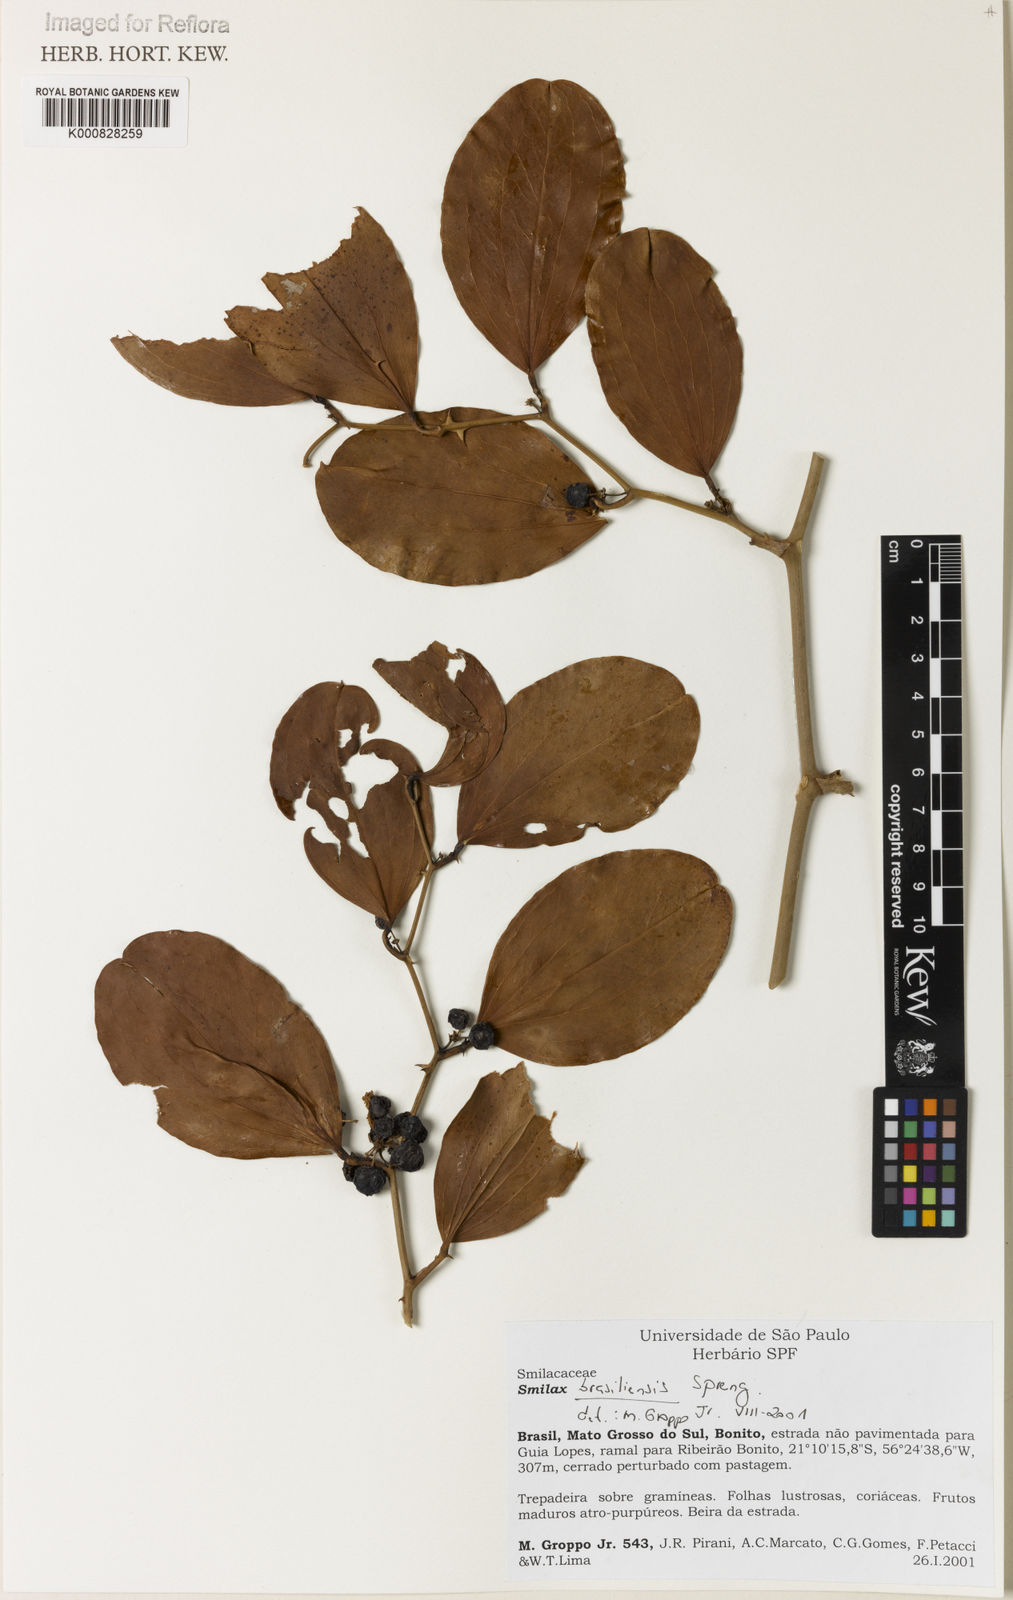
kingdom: Plantae
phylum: Tracheophyta
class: Liliopsida
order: Liliales
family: Smilacaceae
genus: Smilax
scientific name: Smilax brasiliensis
